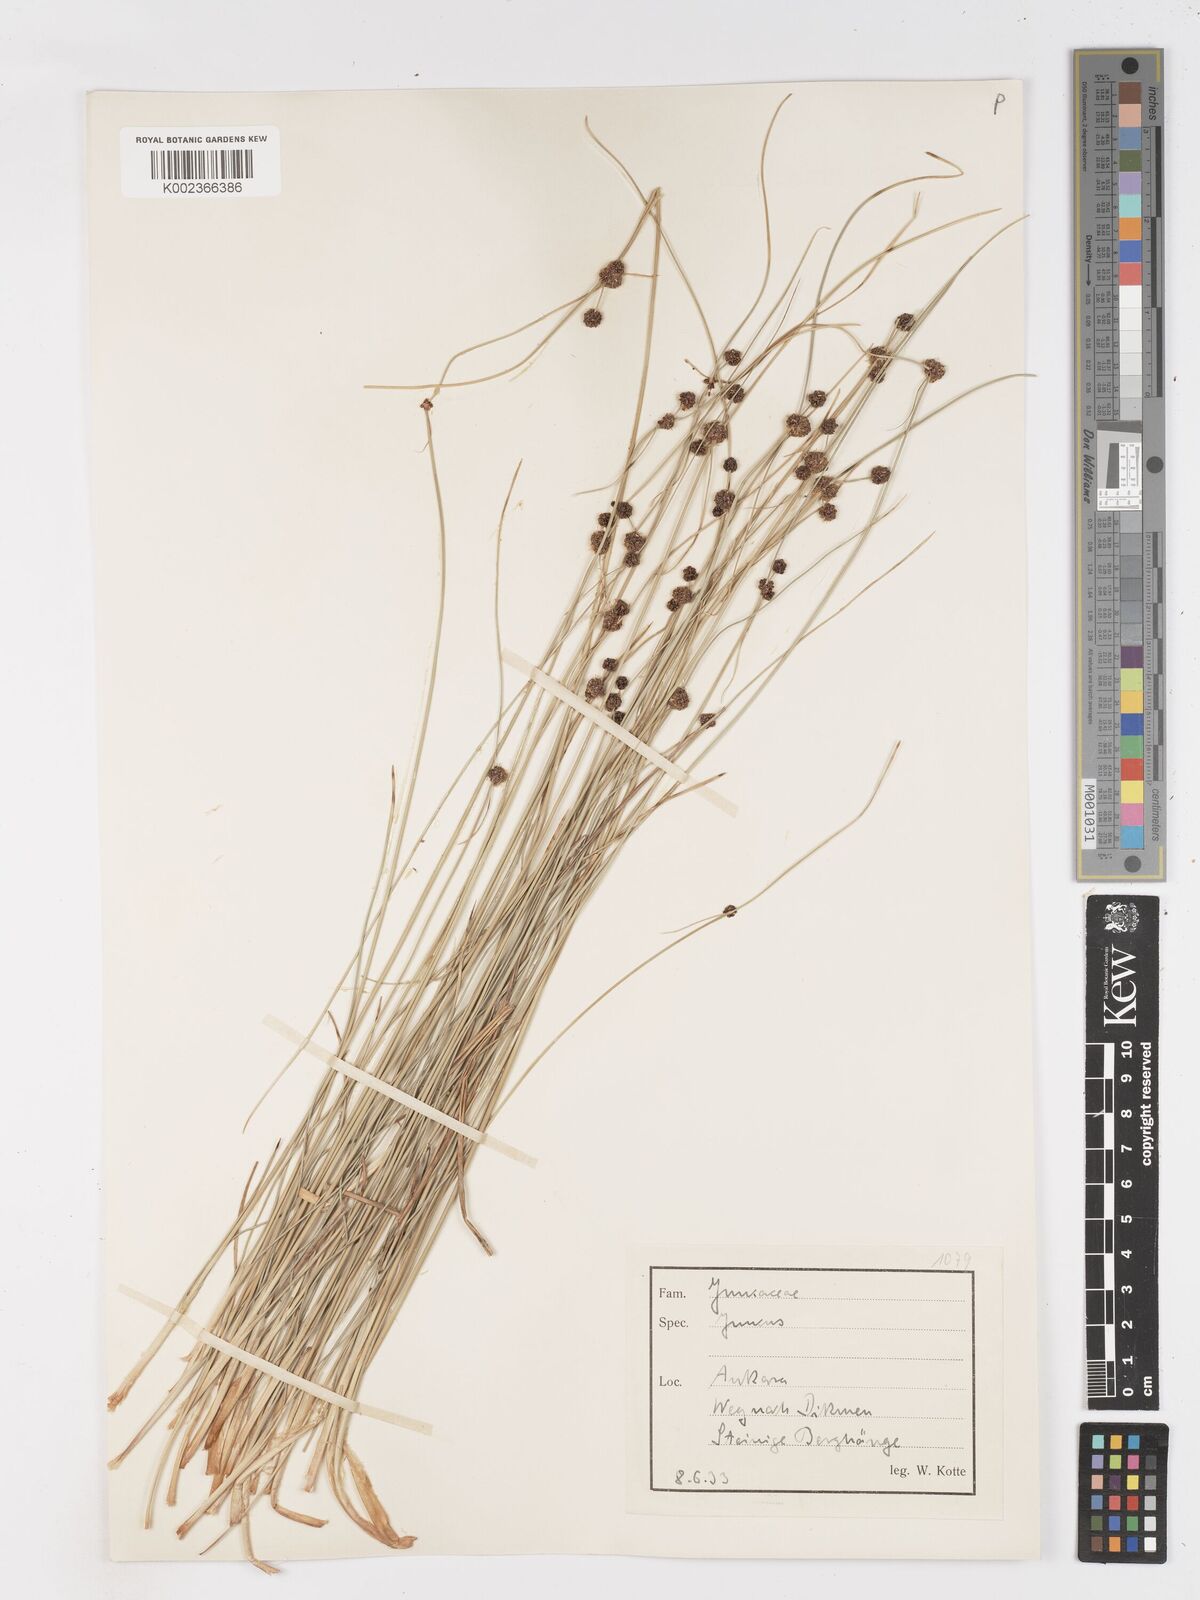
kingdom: Plantae
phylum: Tracheophyta
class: Liliopsida
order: Poales
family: Cyperaceae
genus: Scirpoides
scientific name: Scirpoides holoschoenus
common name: Round-headed club-rush
